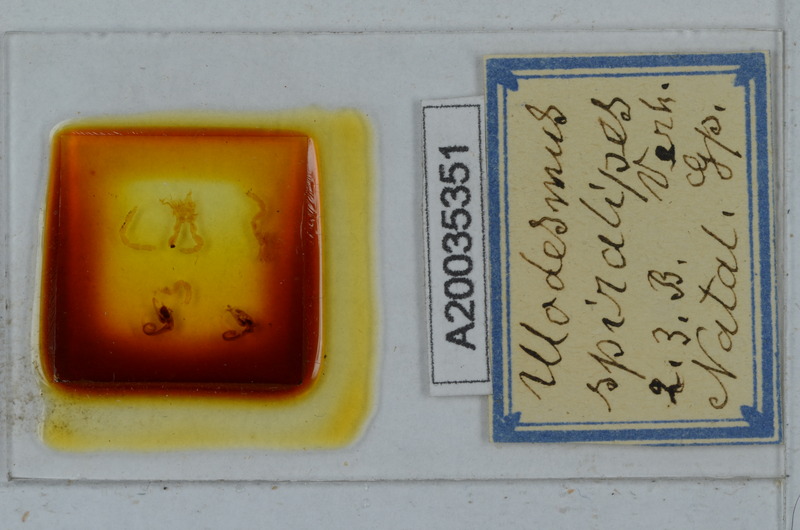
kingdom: Animalia
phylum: Arthropoda
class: Diplopoda
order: Polydesmida
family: Gomphodesmidae
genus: Ulodesmus
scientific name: Ulodesmus spiralipes
